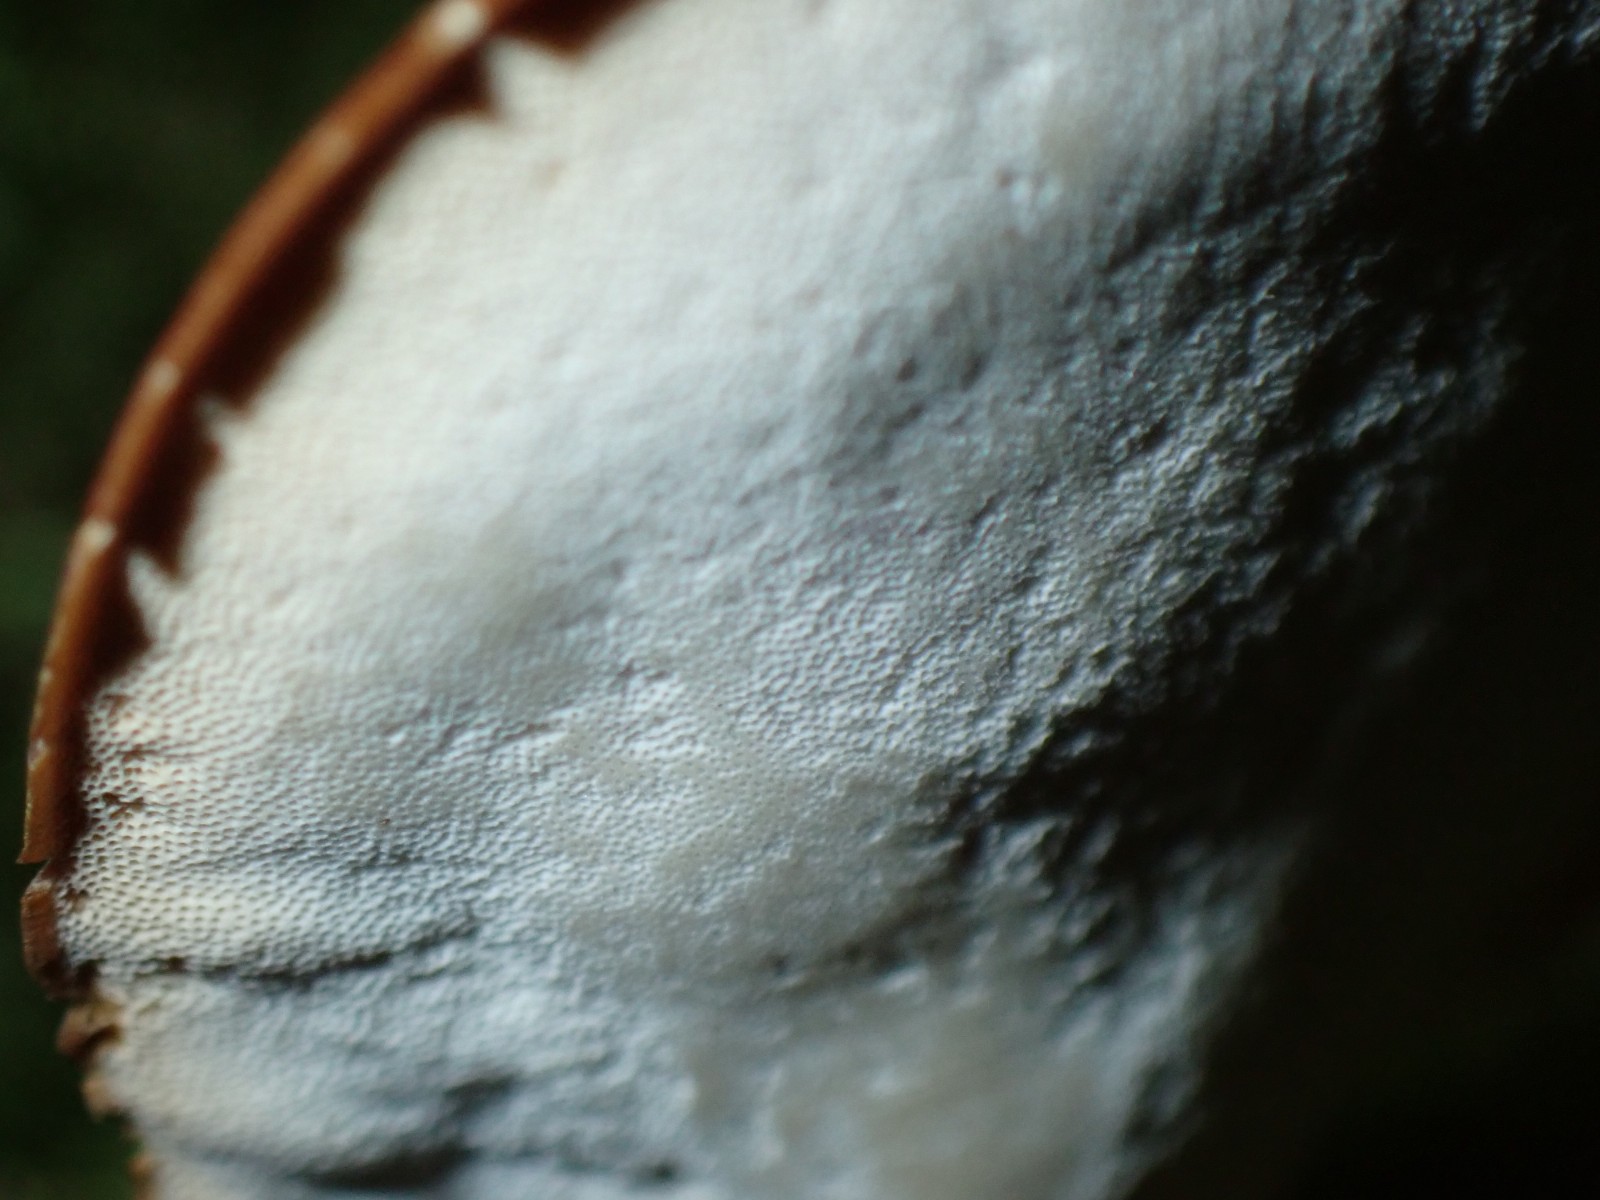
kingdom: Fungi
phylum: Basidiomycota
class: Agaricomycetes
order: Polyporales
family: Polyporaceae
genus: Cerioporus
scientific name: Cerioporus varius
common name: foranderlig stilkporesvamp
